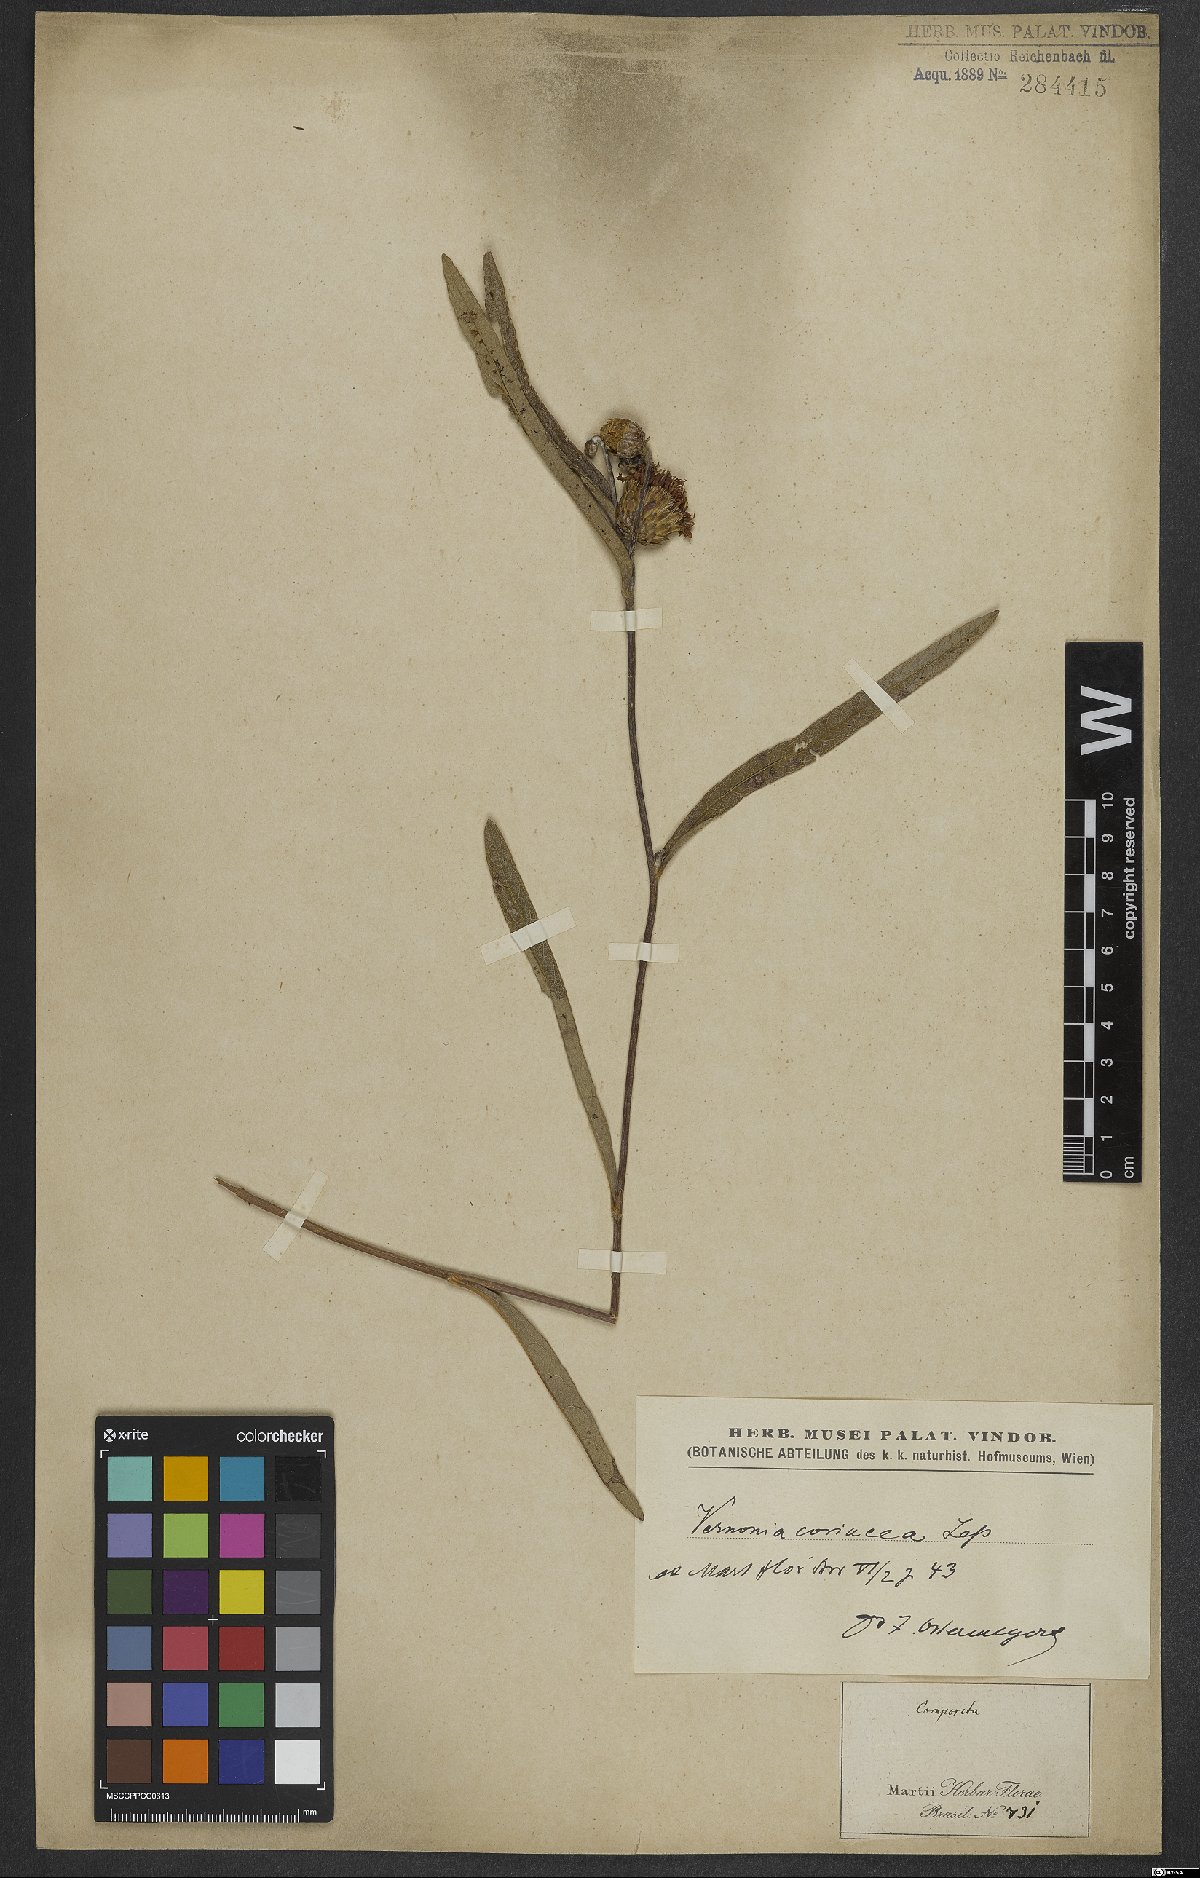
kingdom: Plantae
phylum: Tracheophyta
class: Magnoliopsida
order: Asterales
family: Asteraceae
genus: Lessingianthus
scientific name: Lessingianthus coriaceus
